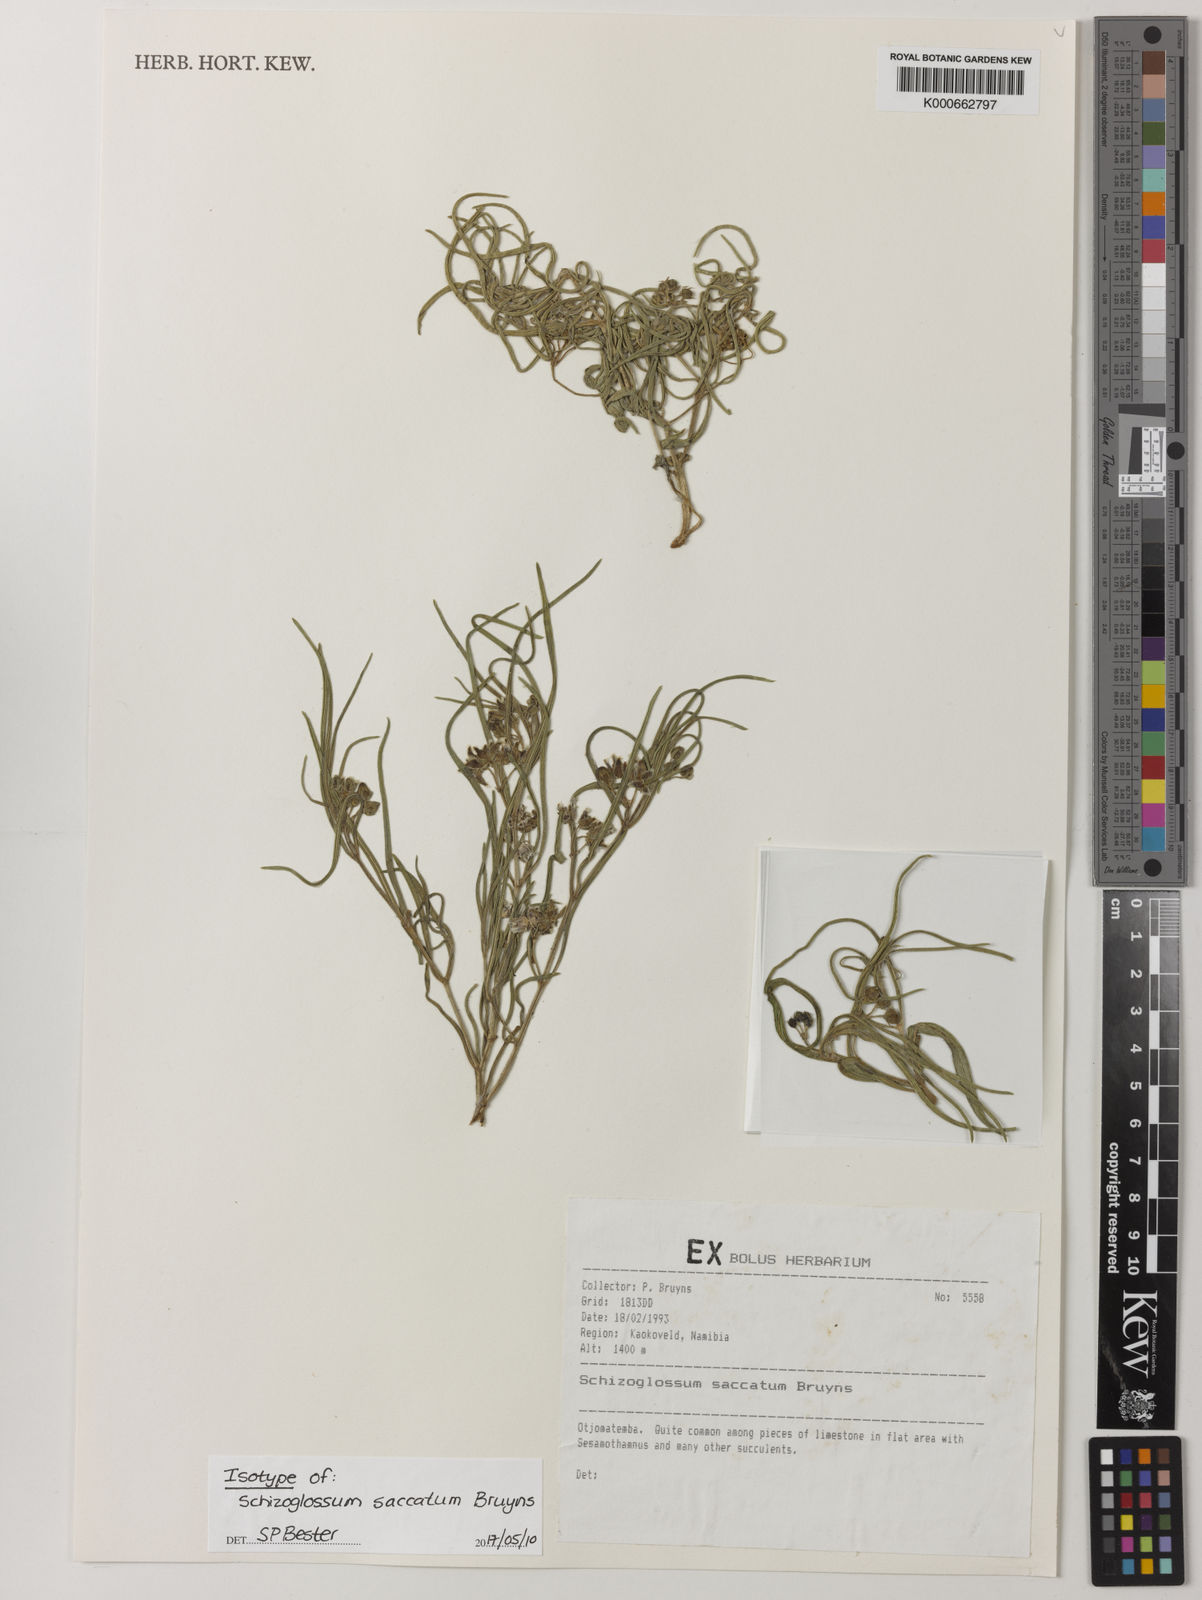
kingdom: Plantae
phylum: Tracheophyta
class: Magnoliopsida
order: Gentianales
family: Apocynaceae
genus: Schizoglossum
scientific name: Schizoglossum saccatum
